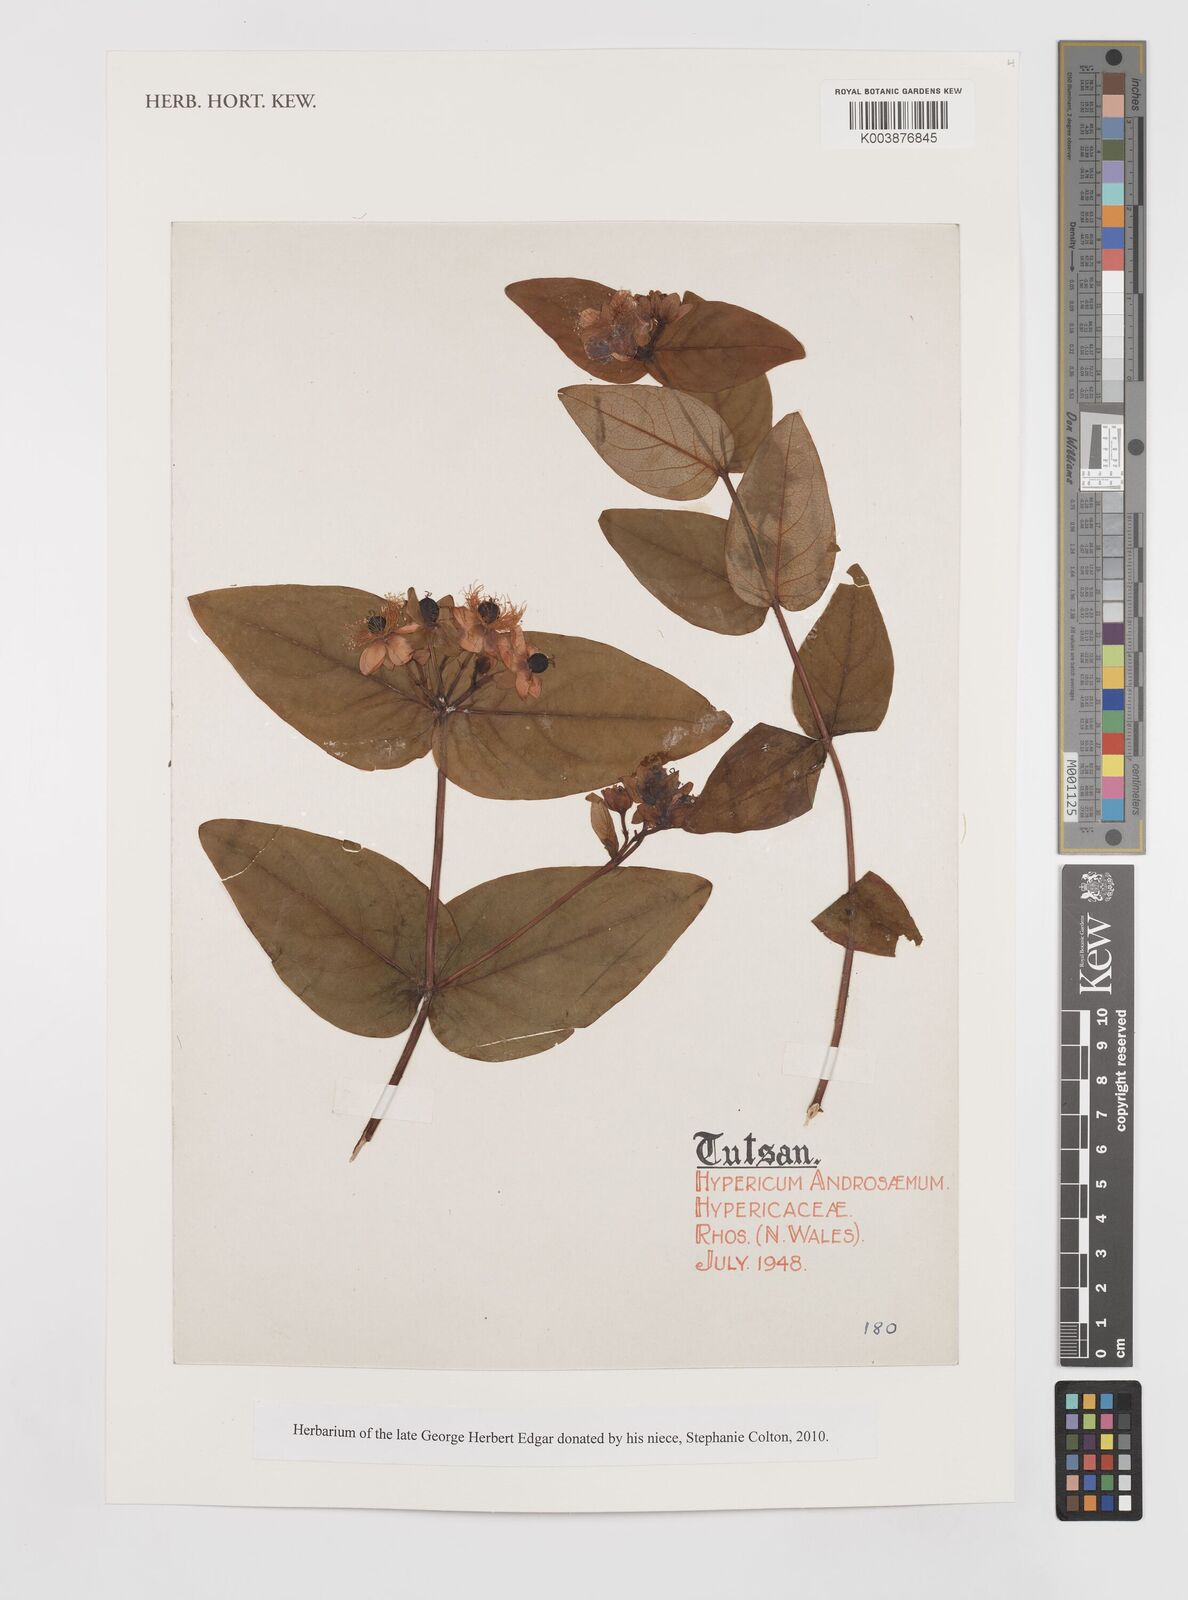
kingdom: Plantae
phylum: Tracheophyta
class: Magnoliopsida
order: Malpighiales
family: Hypericaceae
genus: Hypericum
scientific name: Hypericum androsaemum
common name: Sweet-amber
